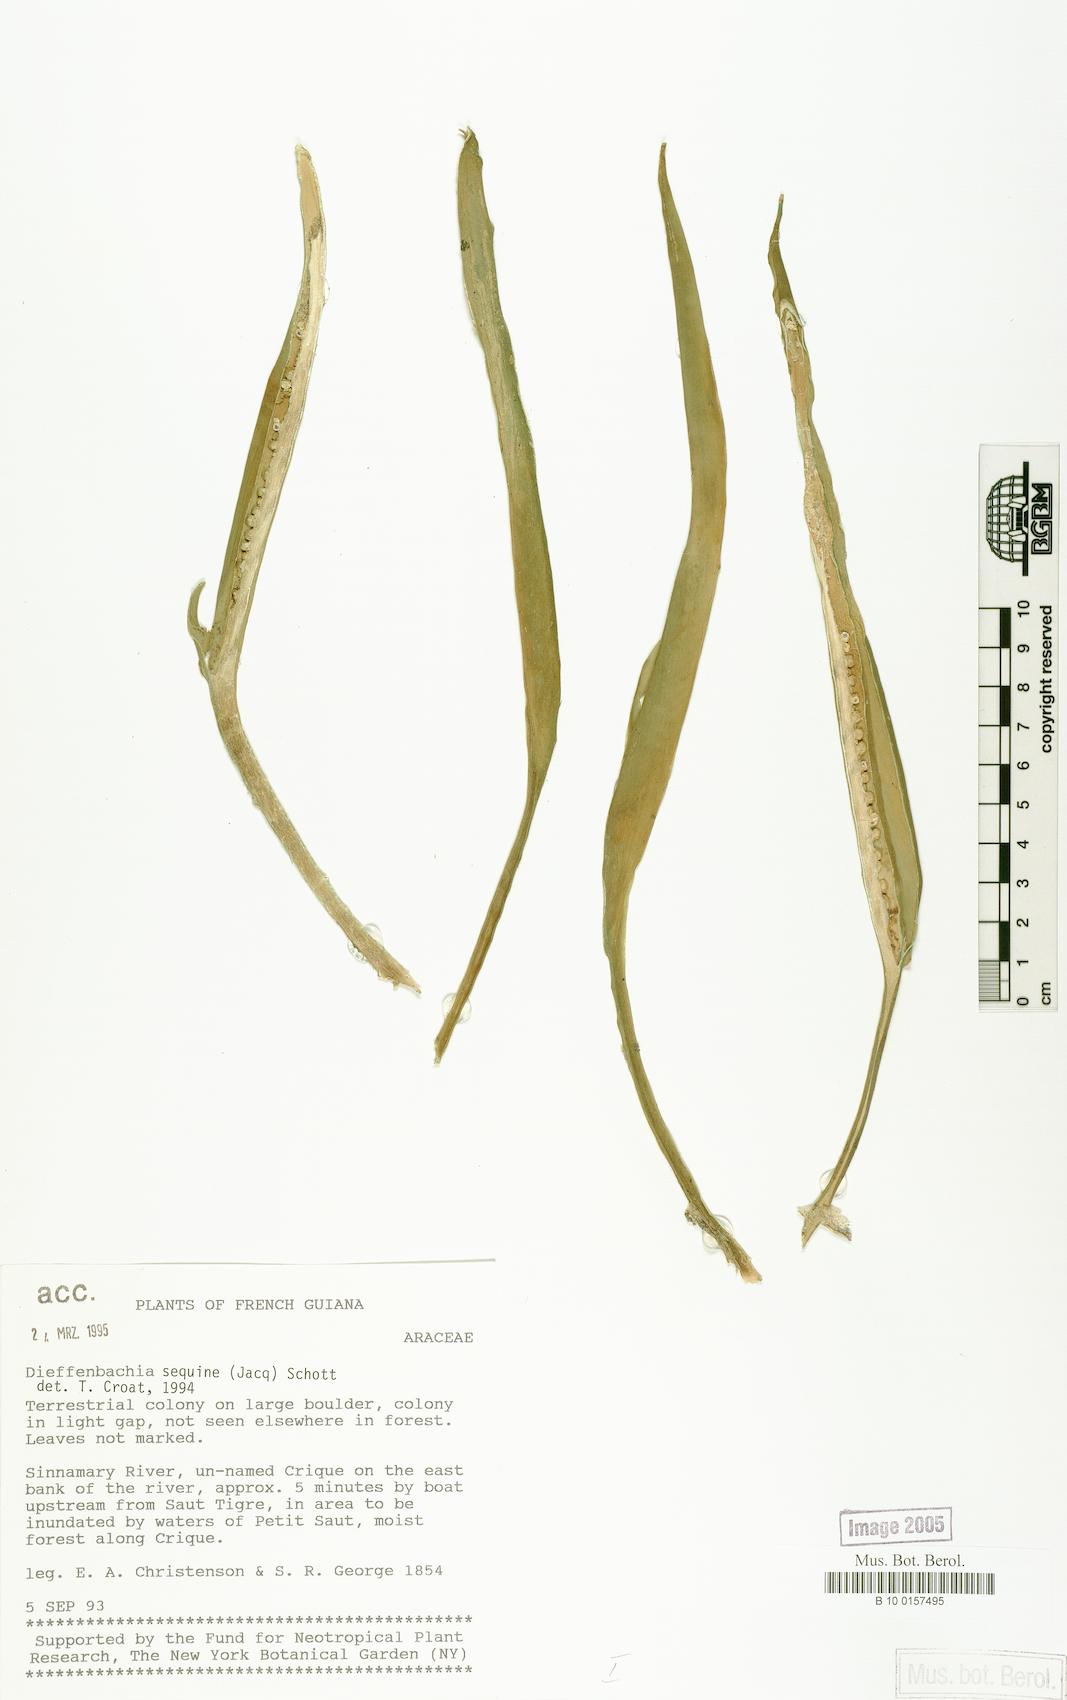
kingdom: Plantae
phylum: Tracheophyta
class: Liliopsida
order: Alismatales
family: Araceae
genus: Dieffenbachia
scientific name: Dieffenbachia seguine
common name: Dumbcane
